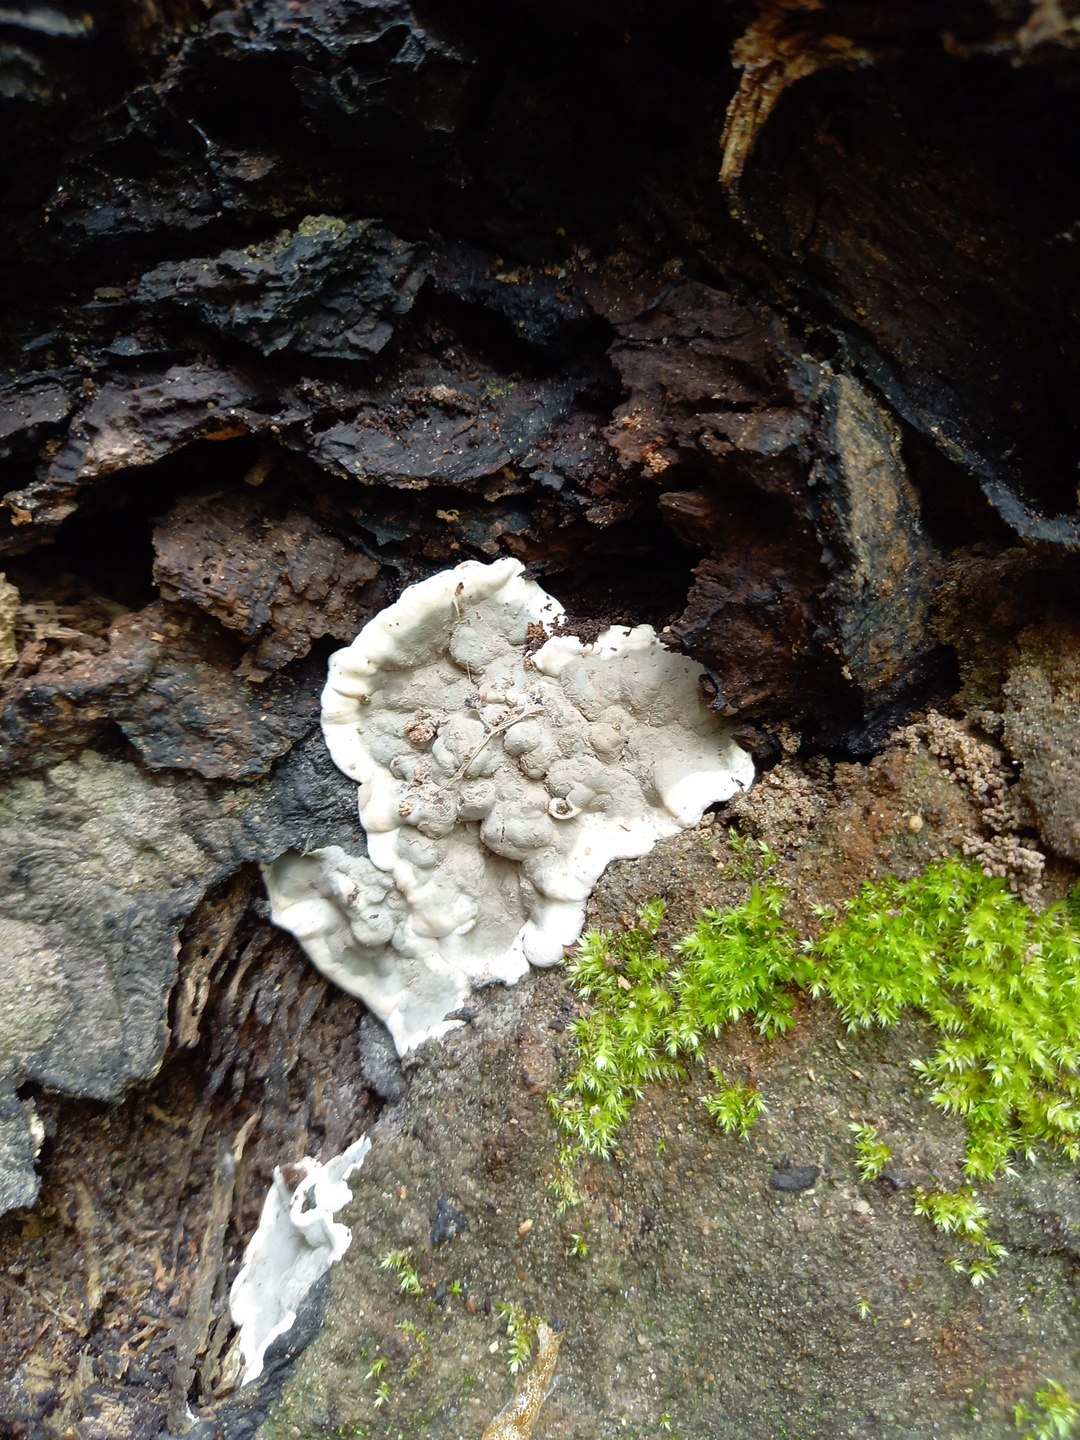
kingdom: Fungi
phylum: Ascomycota
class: Sordariomycetes
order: Xylariales
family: Xylariaceae
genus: Kretzschmaria
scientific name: Kretzschmaria deusta
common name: stor kulsvamp
